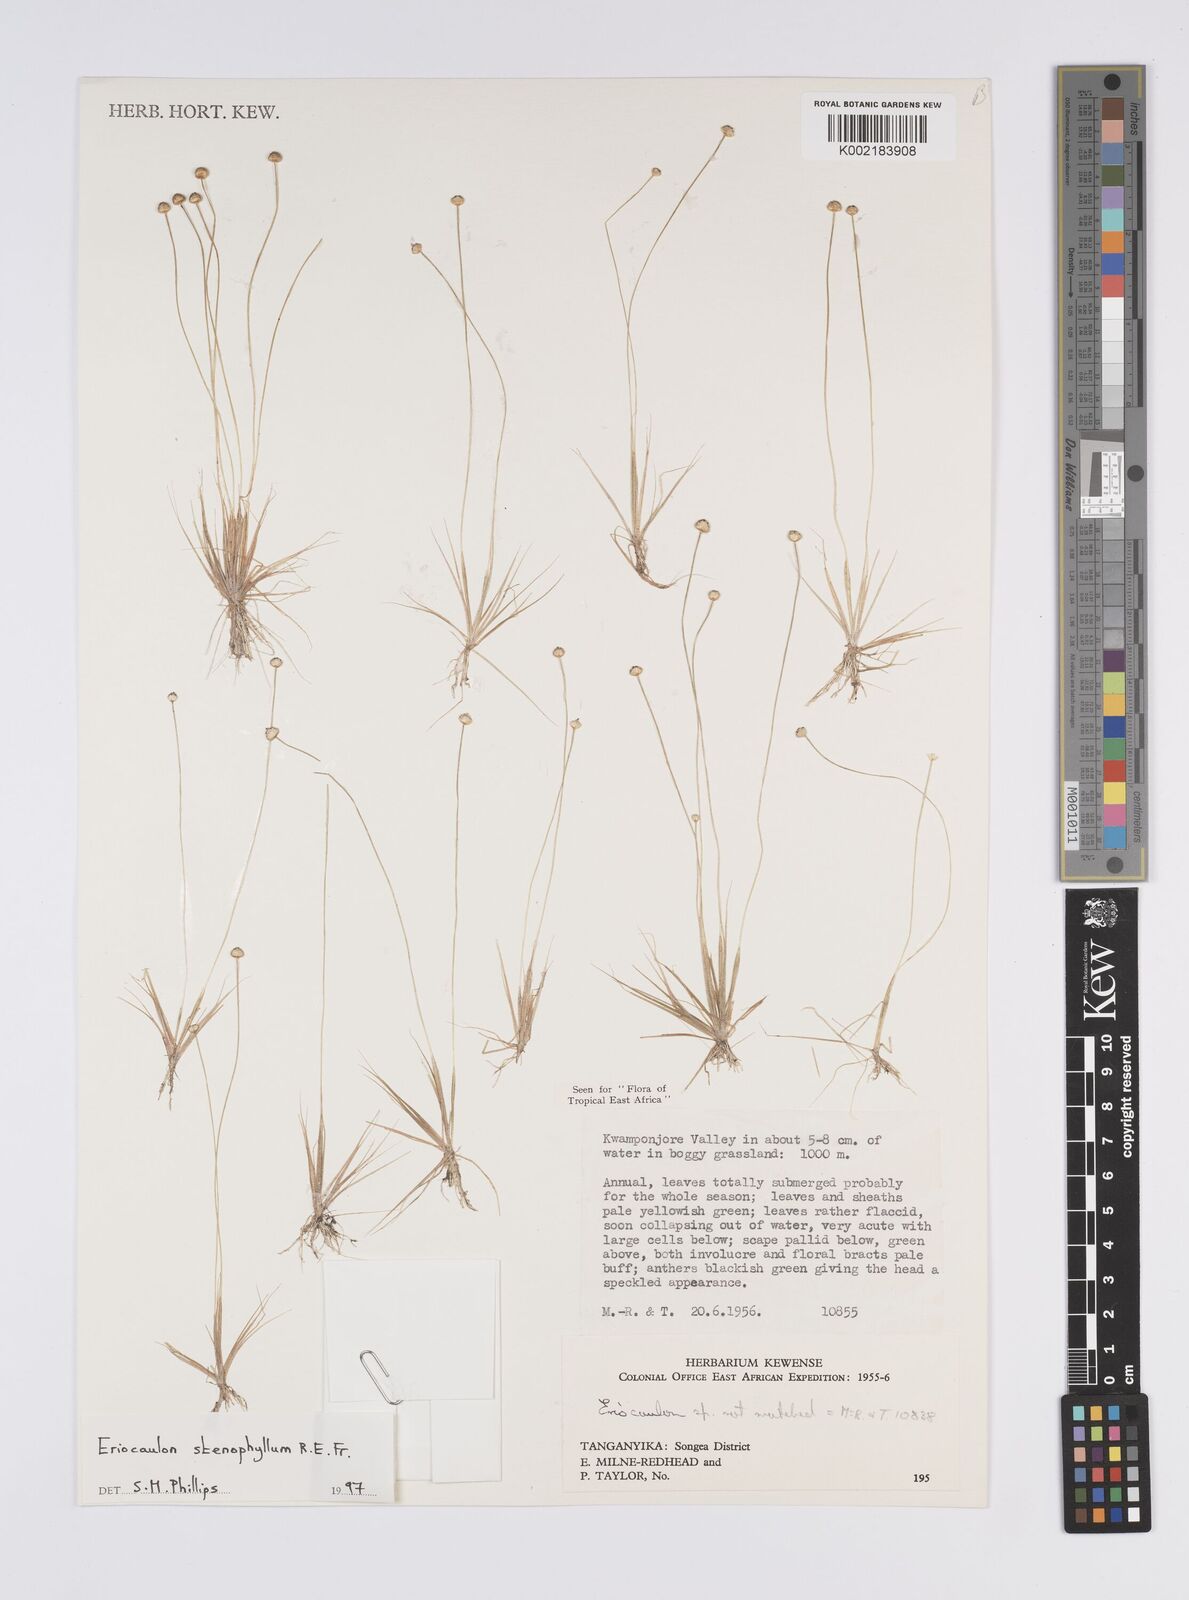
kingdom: Plantae
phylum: Tracheophyta
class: Liliopsida
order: Poales
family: Eriocaulaceae
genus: Eriocaulon
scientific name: Eriocaulon stenophyllum
